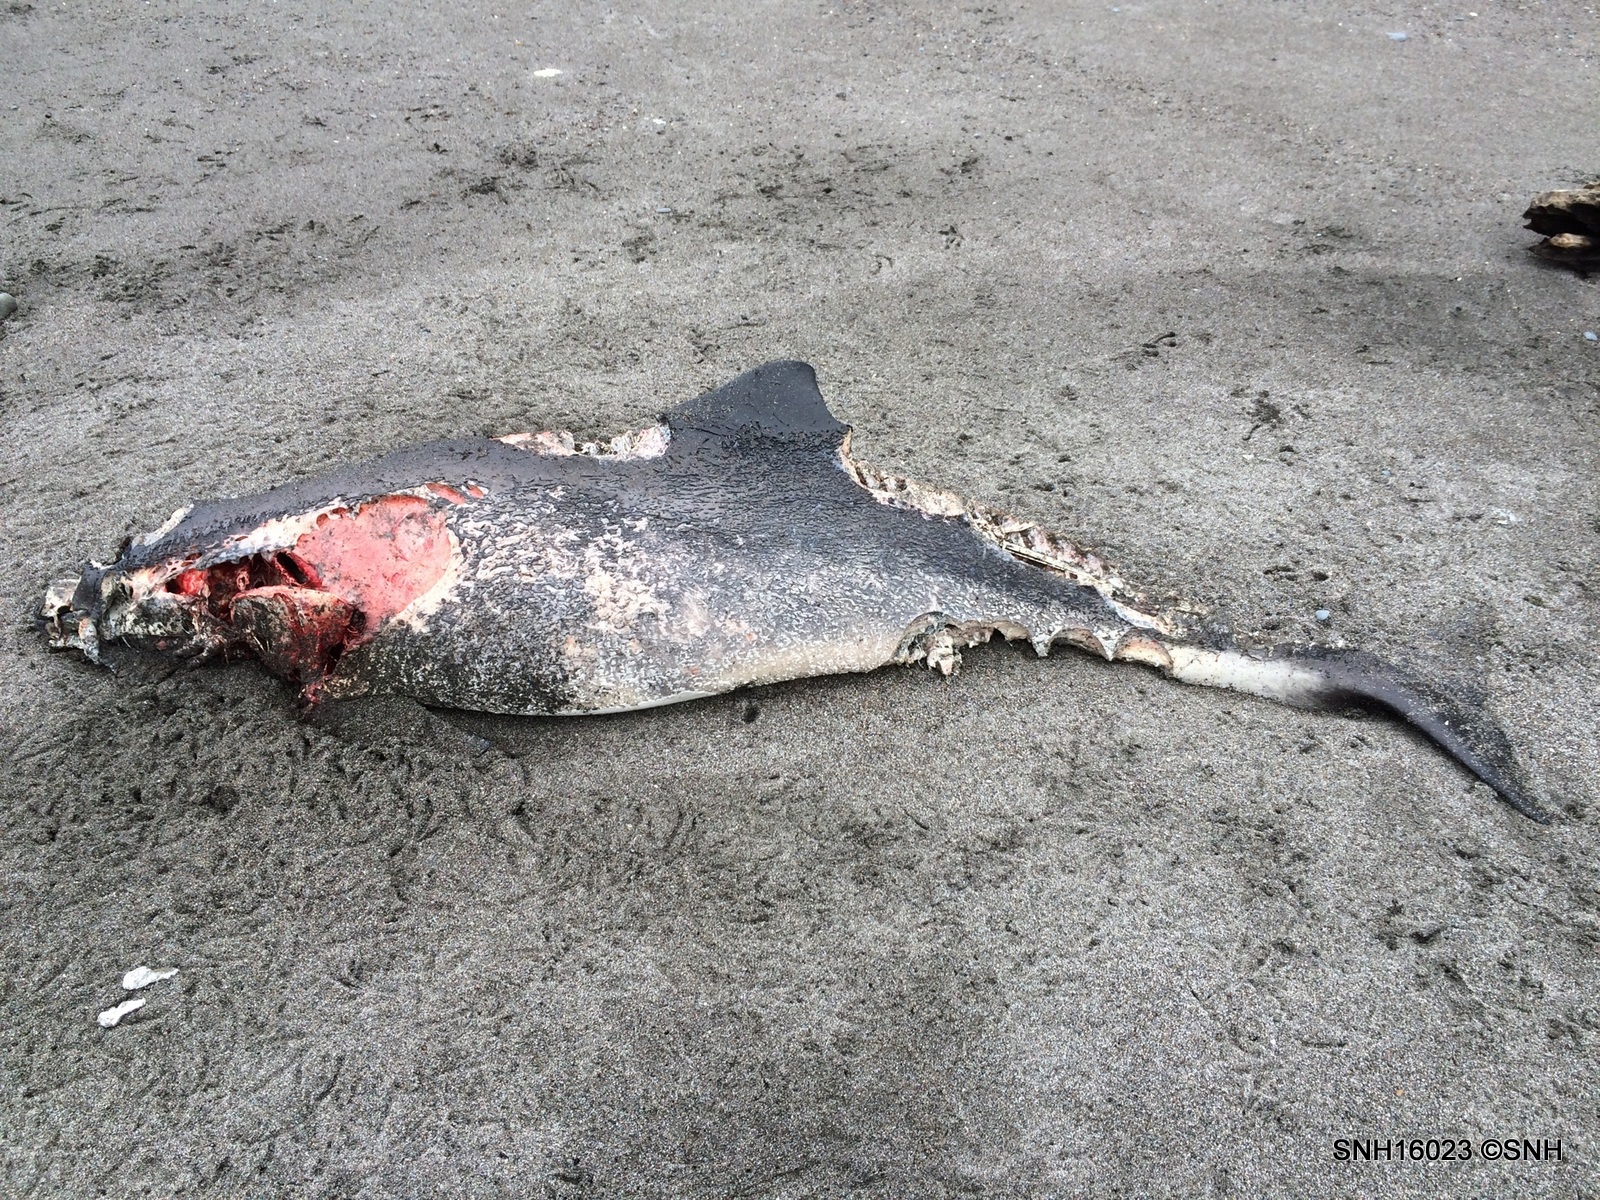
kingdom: Animalia
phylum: Chordata
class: Mammalia
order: Cetacea
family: Phocoenidae
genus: Phocoena
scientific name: Phocoena phocoena
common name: Harbour porpoise
